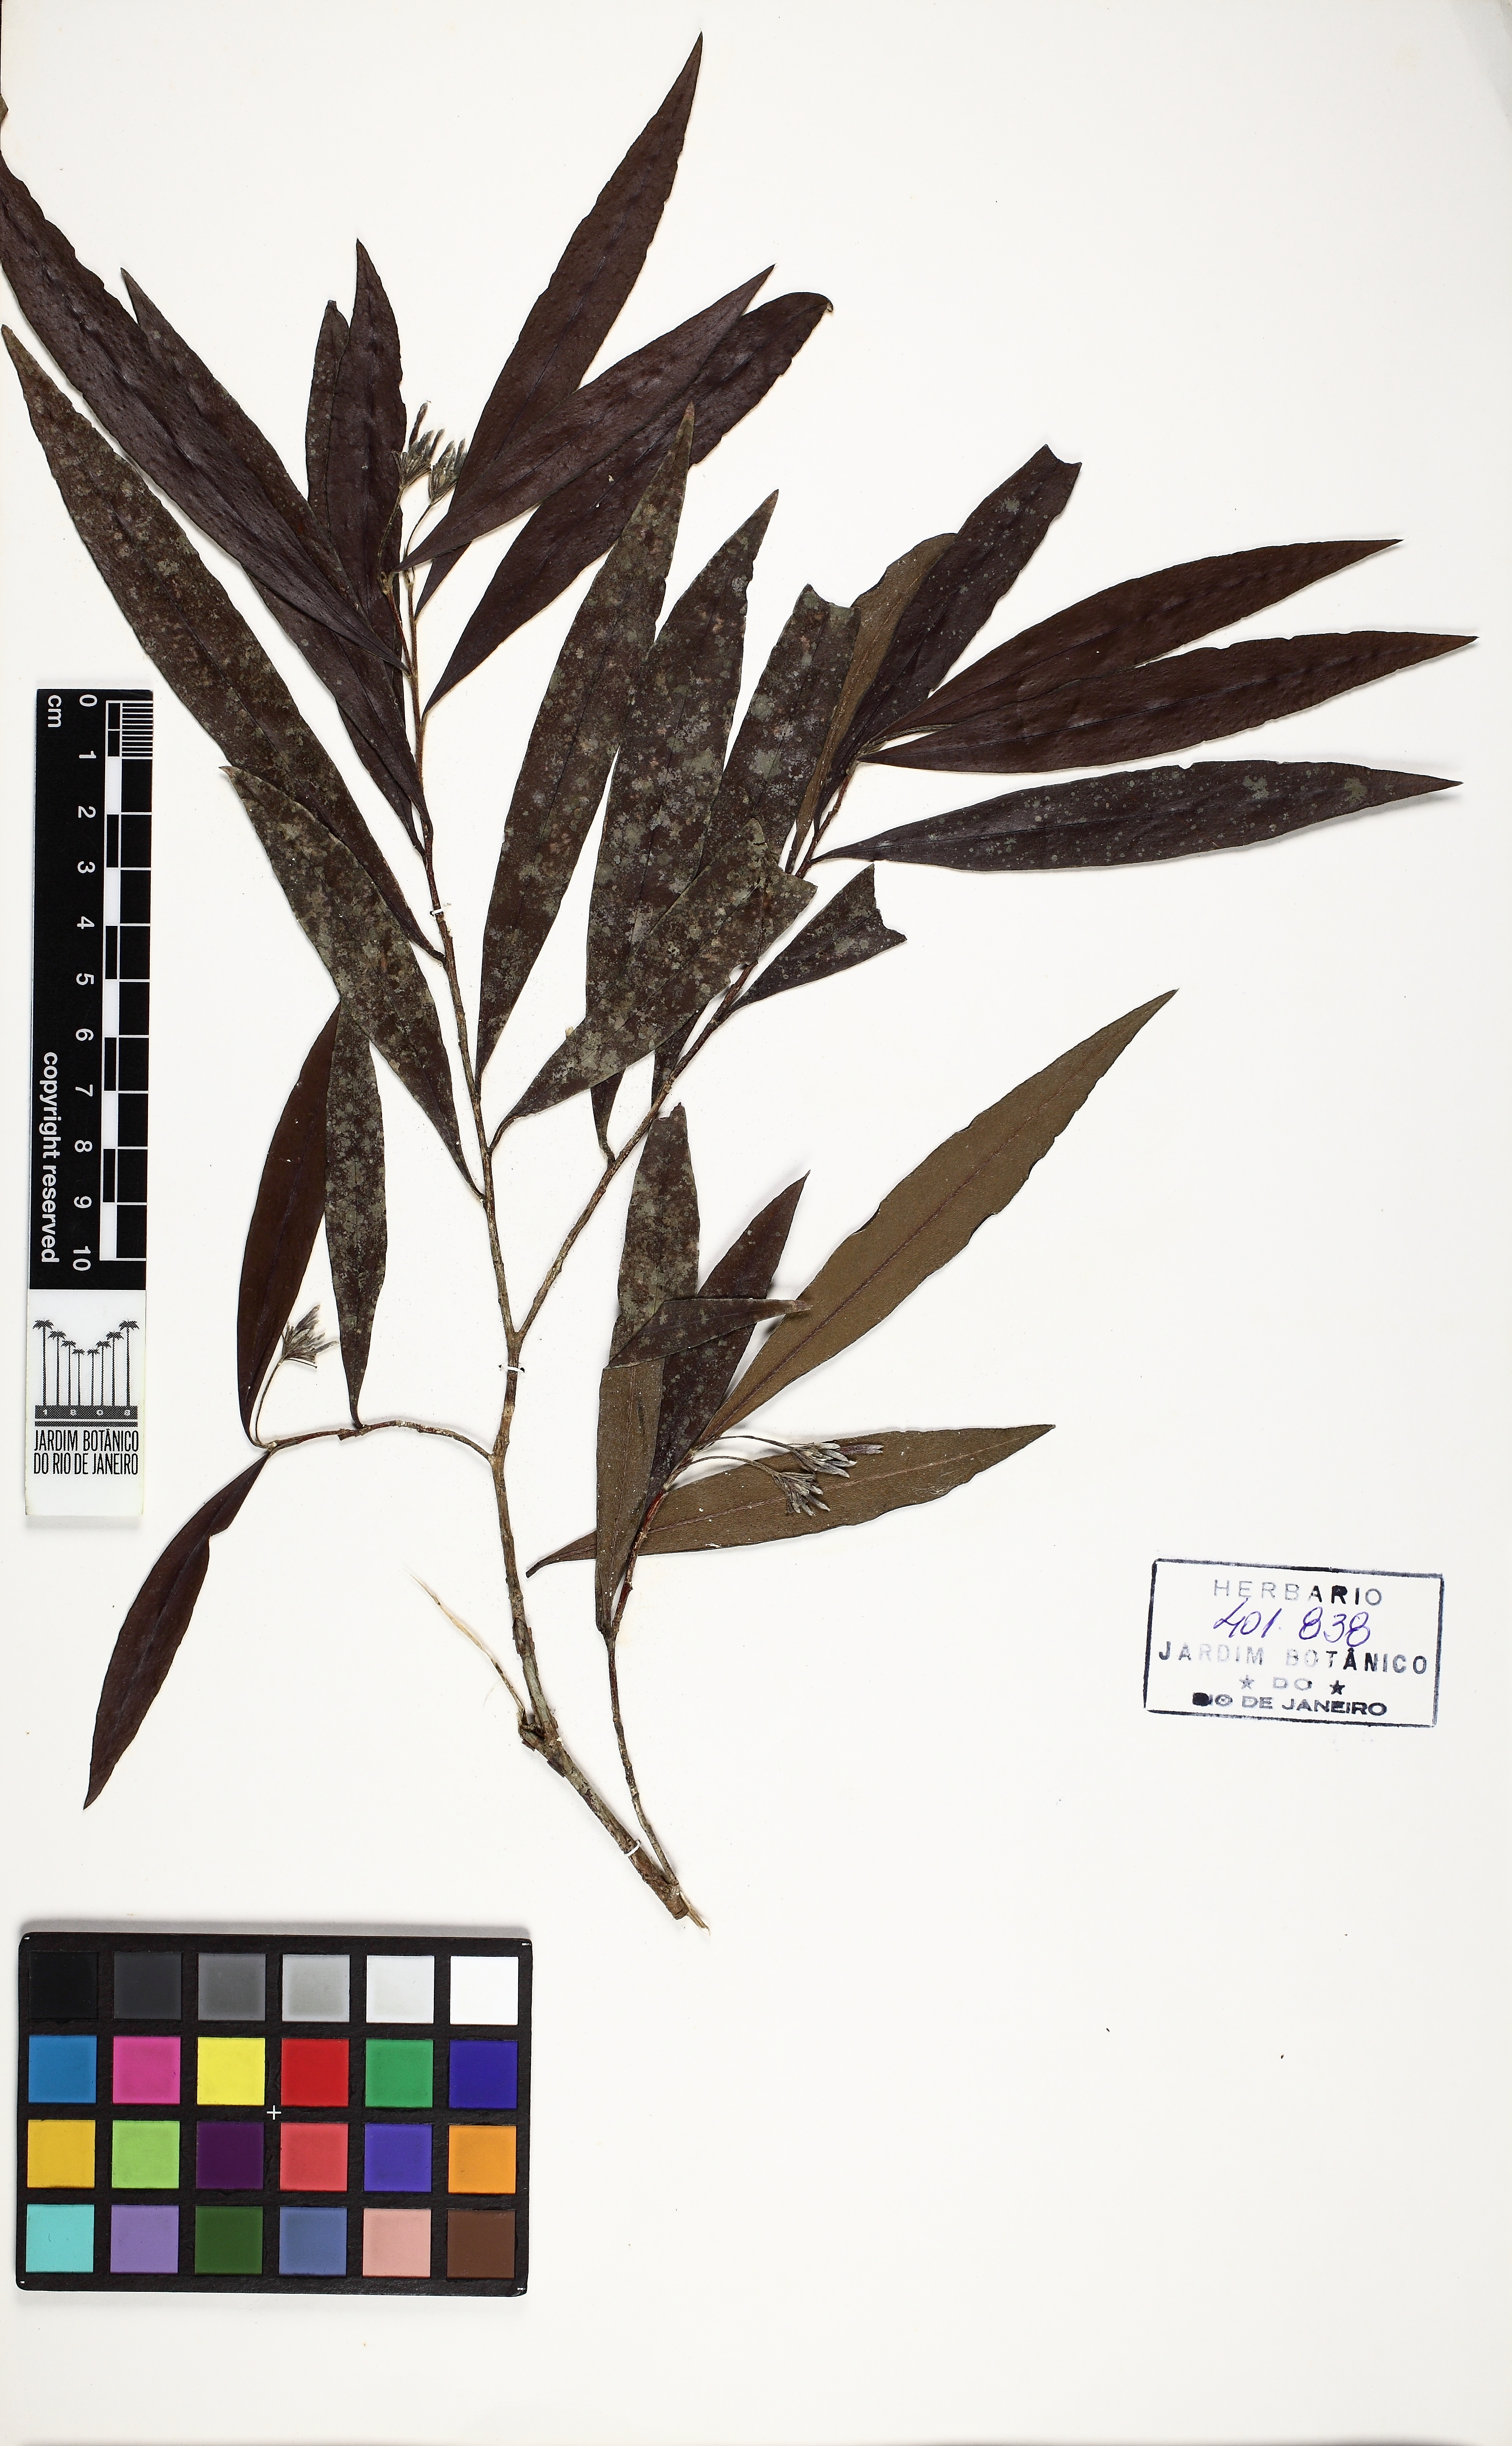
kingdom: Plantae
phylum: Tracheophyta
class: Magnoliopsida
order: Malvales
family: Thymelaeaceae
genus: Funifera
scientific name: Funifera
